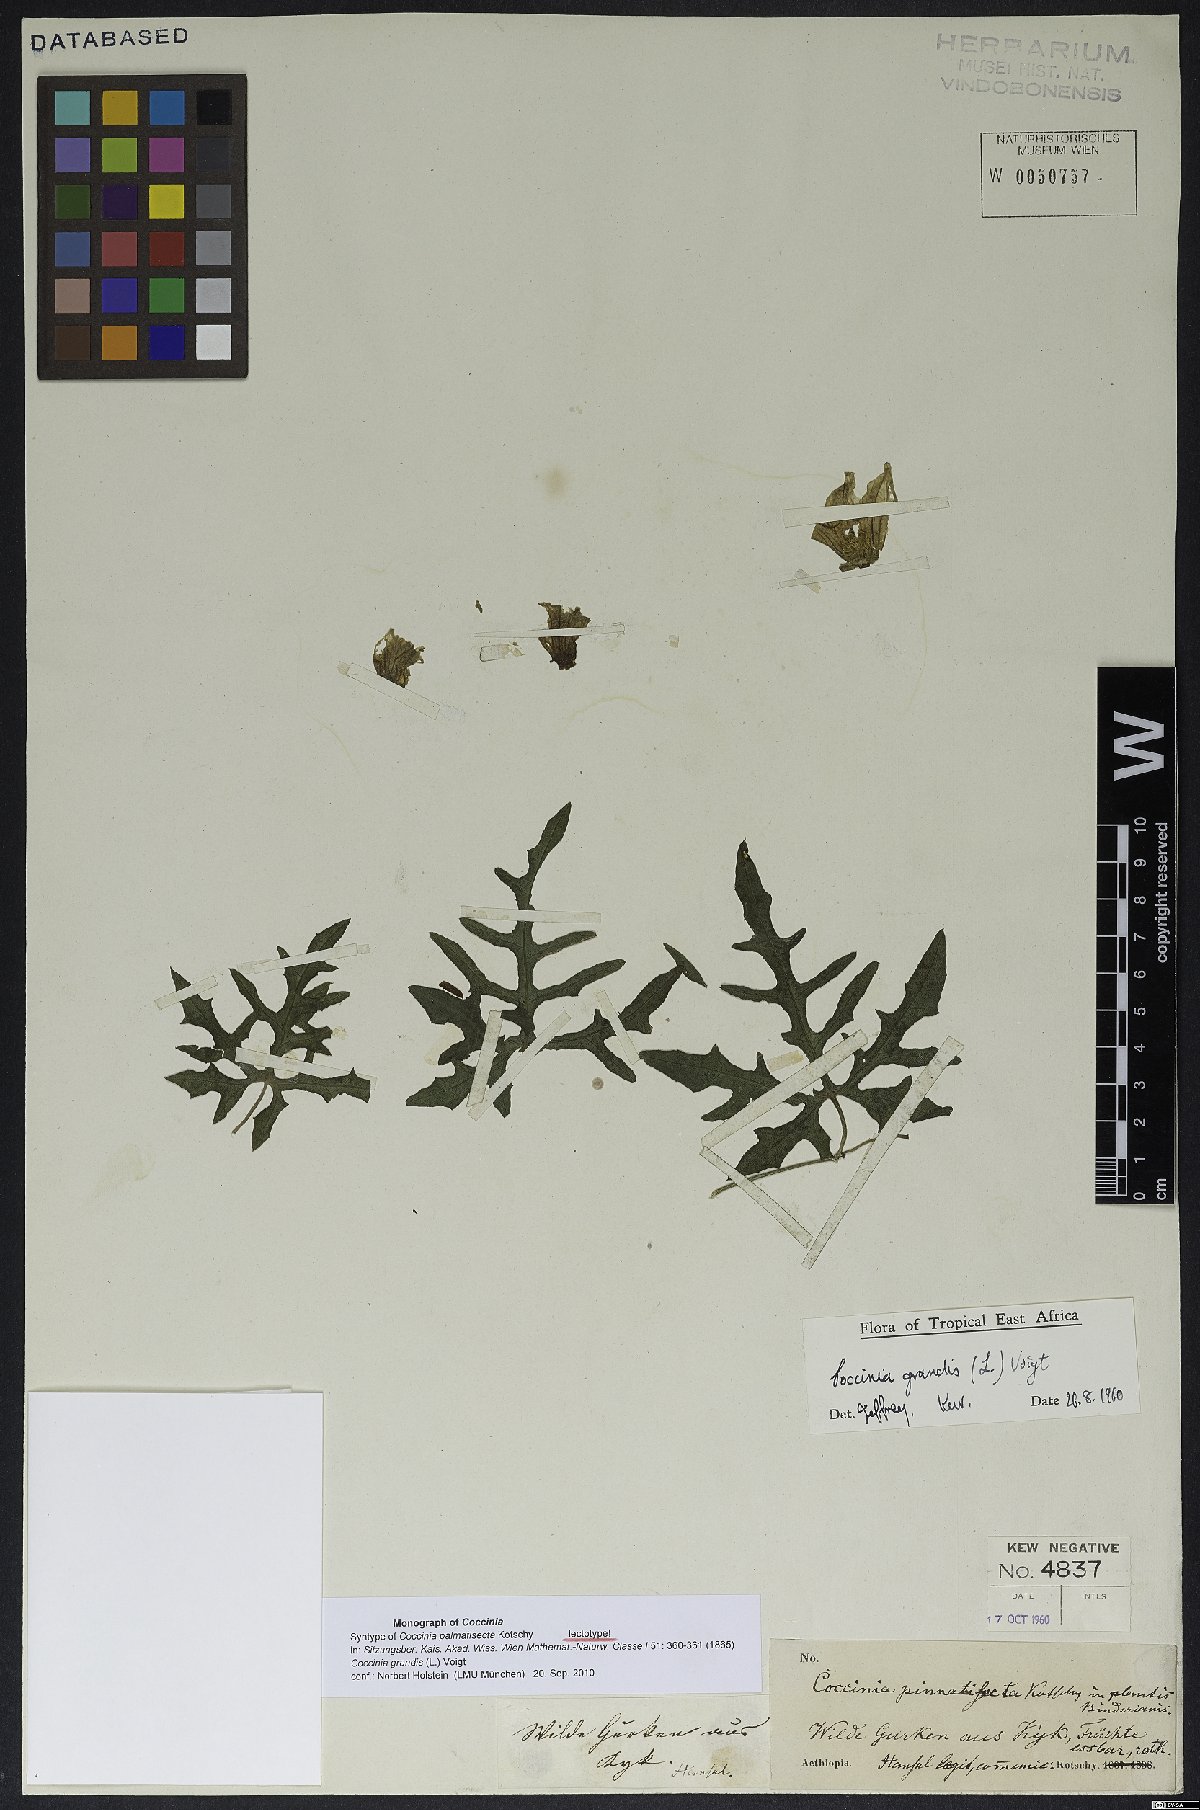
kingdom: Plantae
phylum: Tracheophyta
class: Magnoliopsida
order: Cucurbitales
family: Cucurbitaceae
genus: Coccinia
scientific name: Coccinia grandis
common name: Ivy gourd
